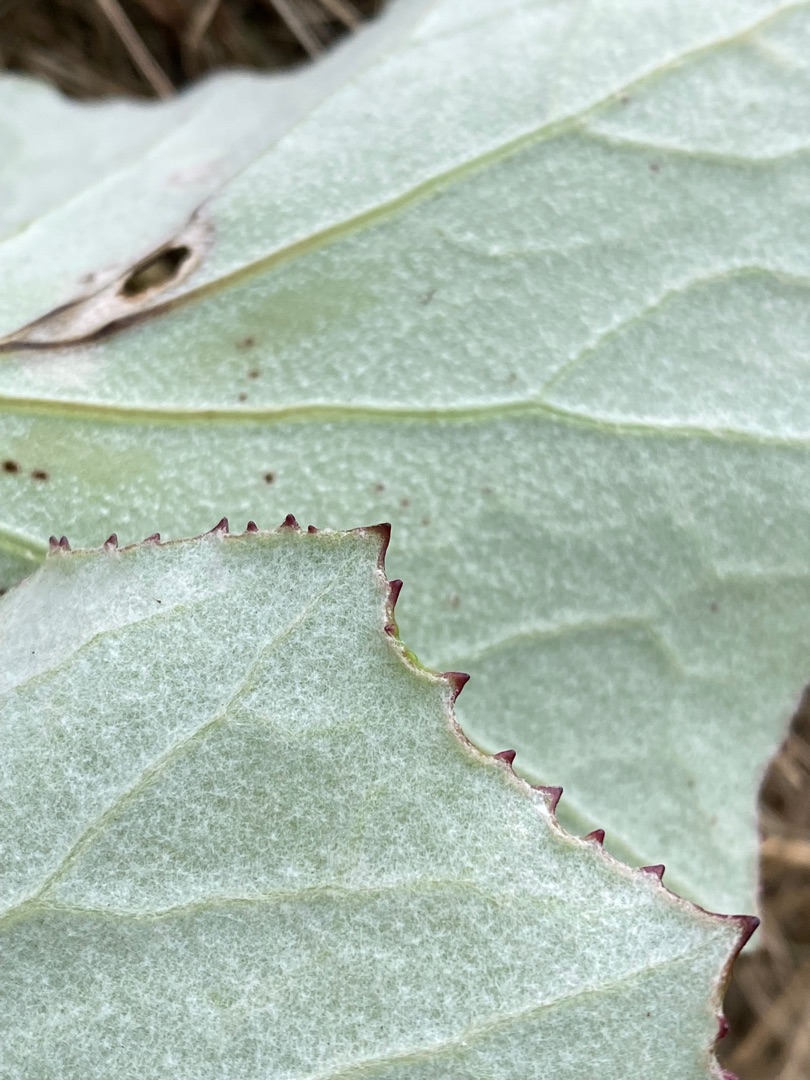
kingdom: Plantae
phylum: Tracheophyta
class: Magnoliopsida
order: Asterales
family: Asteraceae
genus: Tussilago
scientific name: Tussilago farfara
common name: Følfod
